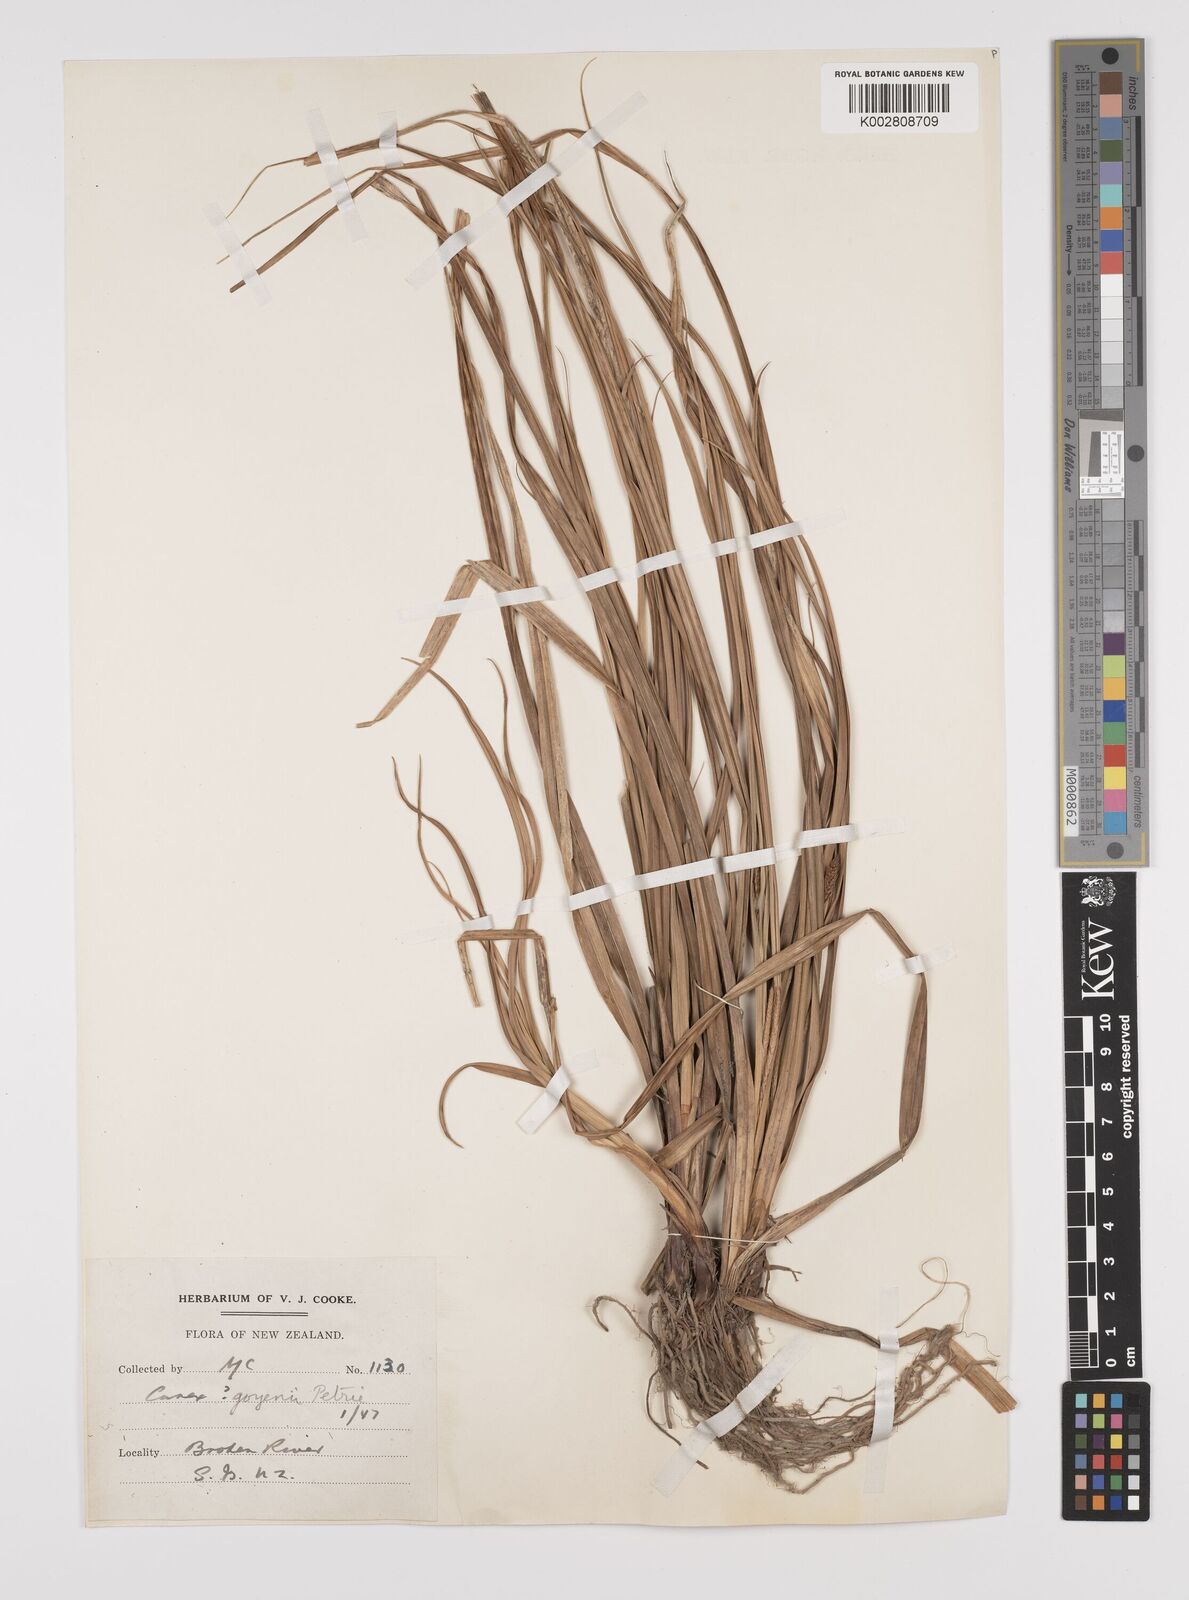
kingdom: Plantae
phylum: Tracheophyta
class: Liliopsida
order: Poales
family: Cyperaceae
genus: Carex
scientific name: Carex raoulii
